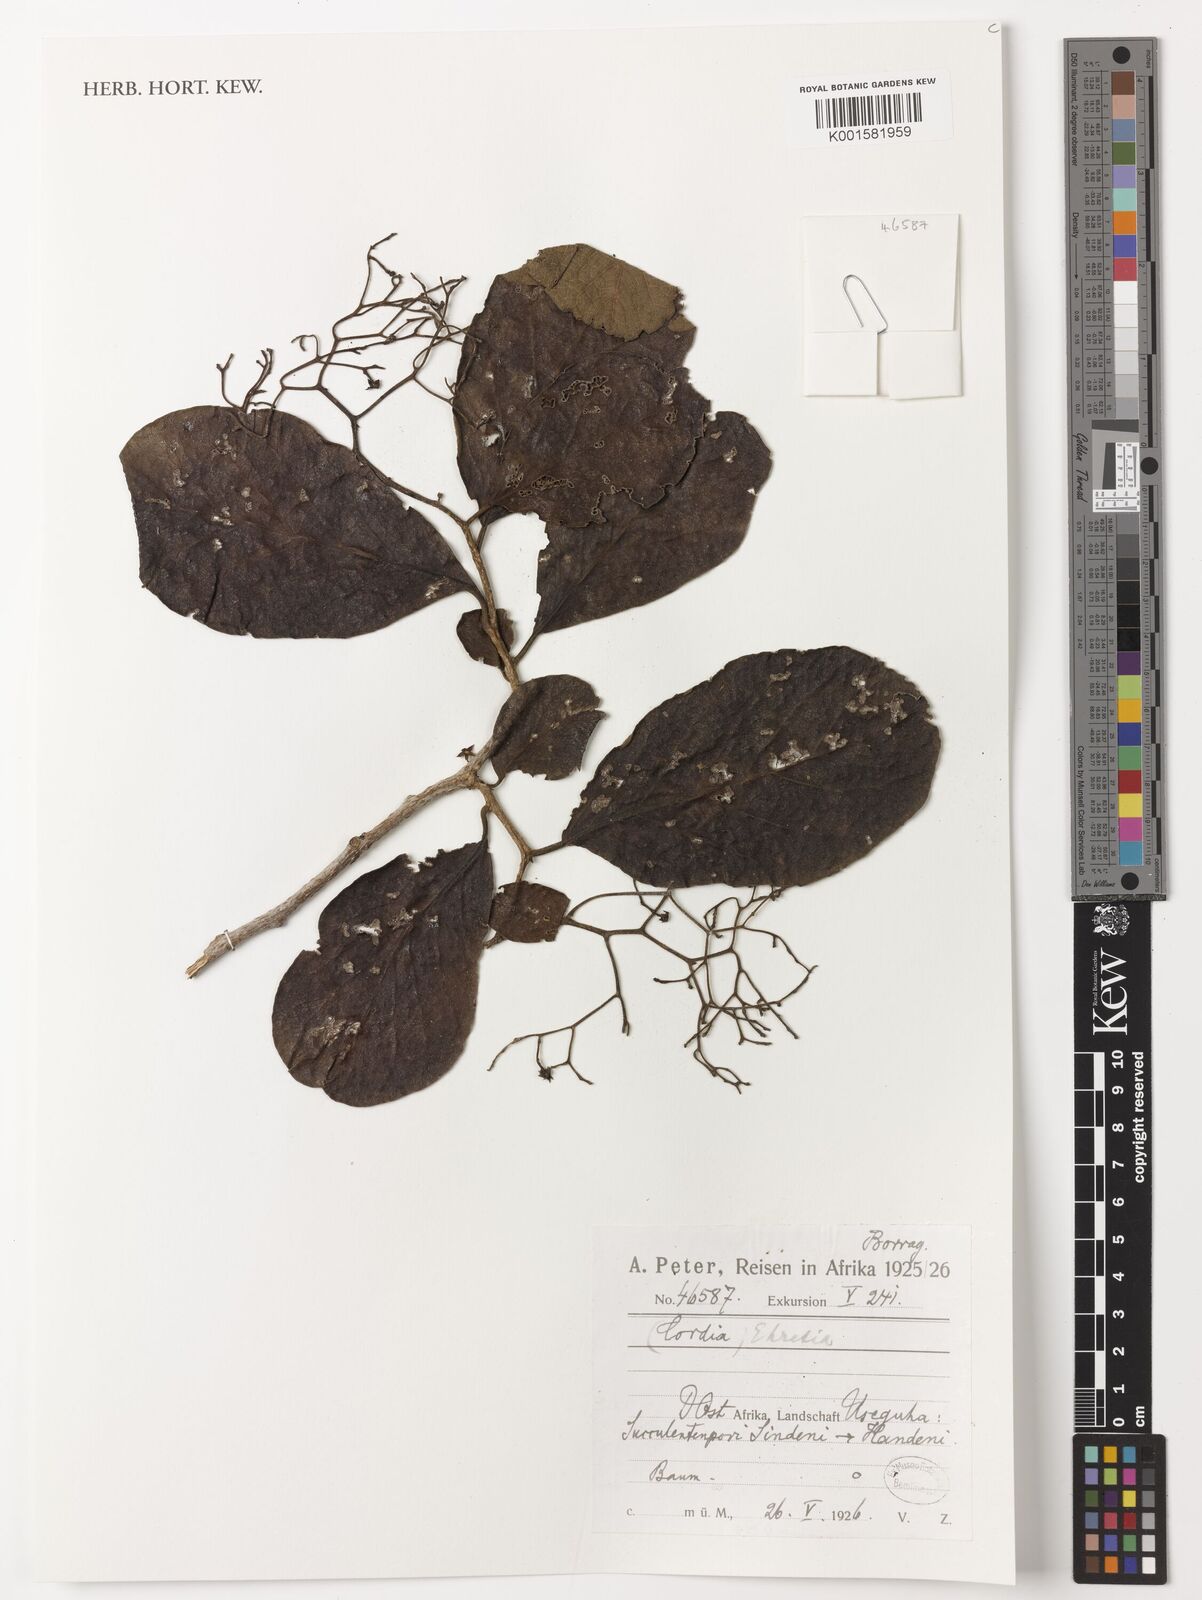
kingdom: Plantae
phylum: Tracheophyta
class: Magnoliopsida
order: Boraginales
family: Ehretiaceae
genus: Ehretia
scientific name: Ehretia
